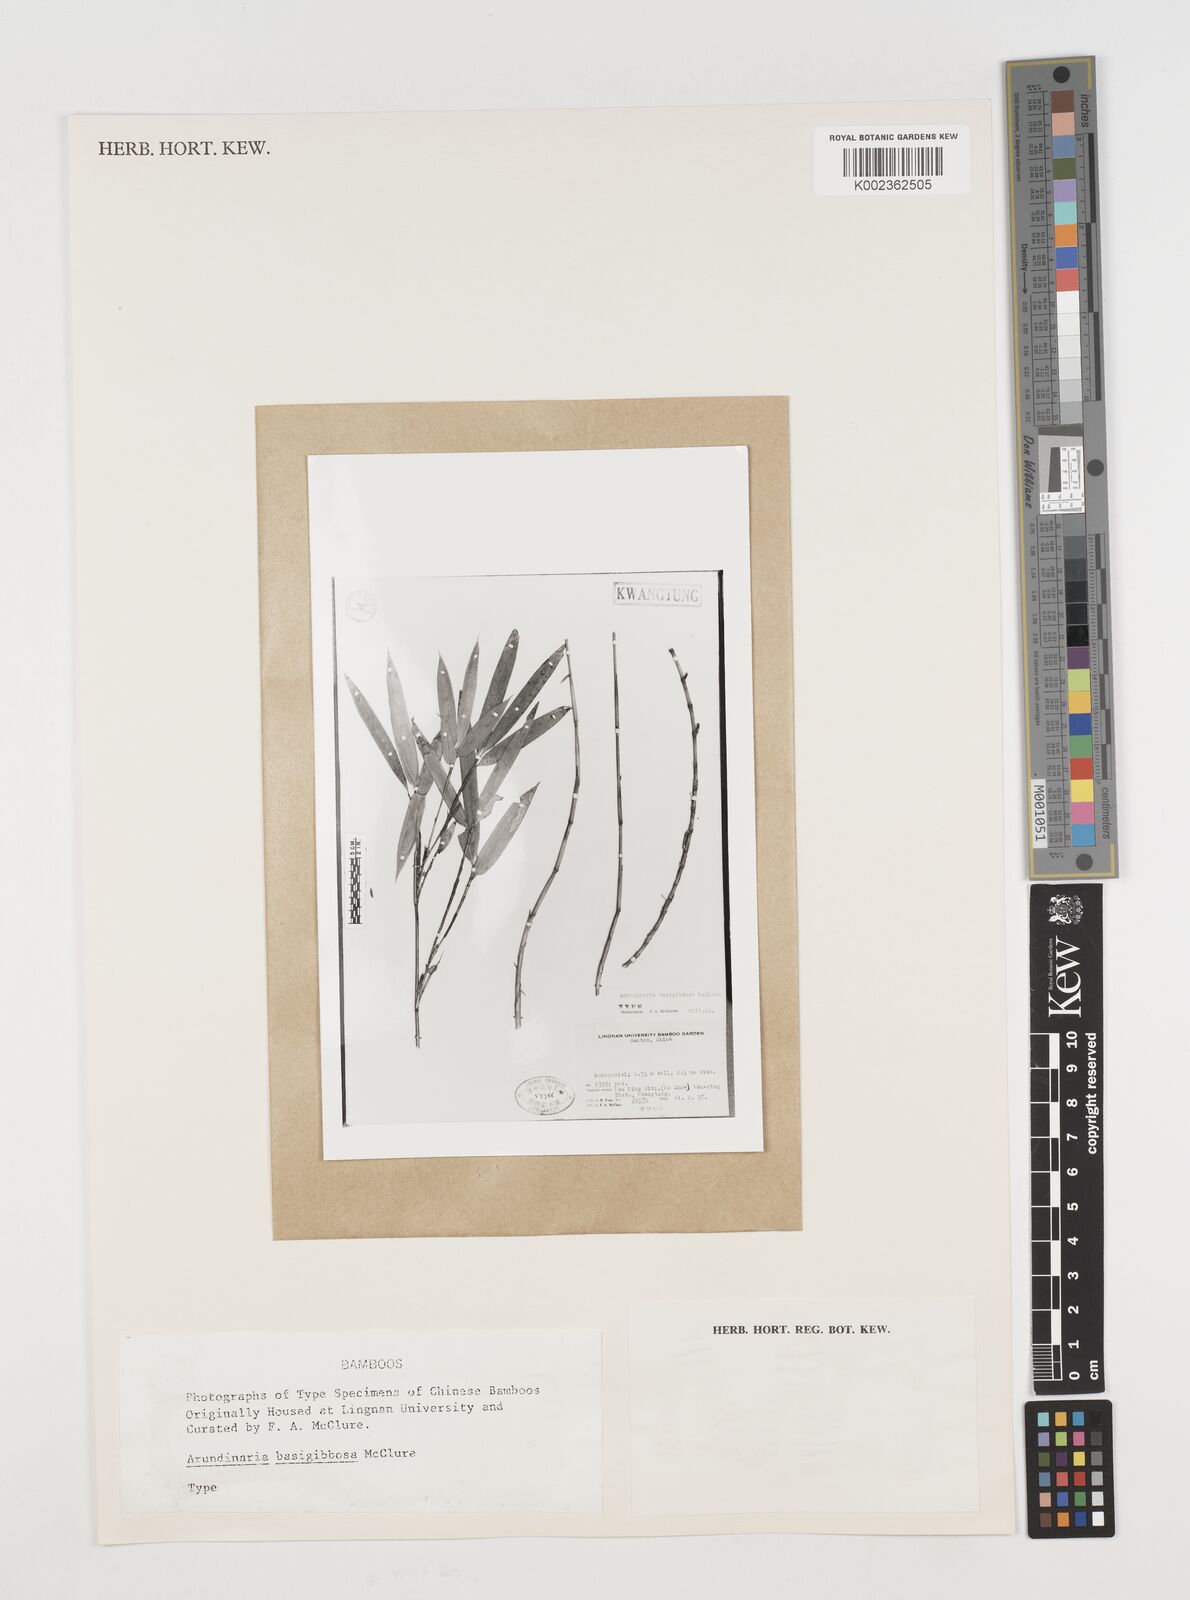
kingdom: Plantae
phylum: Tracheophyta
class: Liliopsida
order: Poales
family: Poaceae
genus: Pseudosasa
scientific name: Pseudosasa
